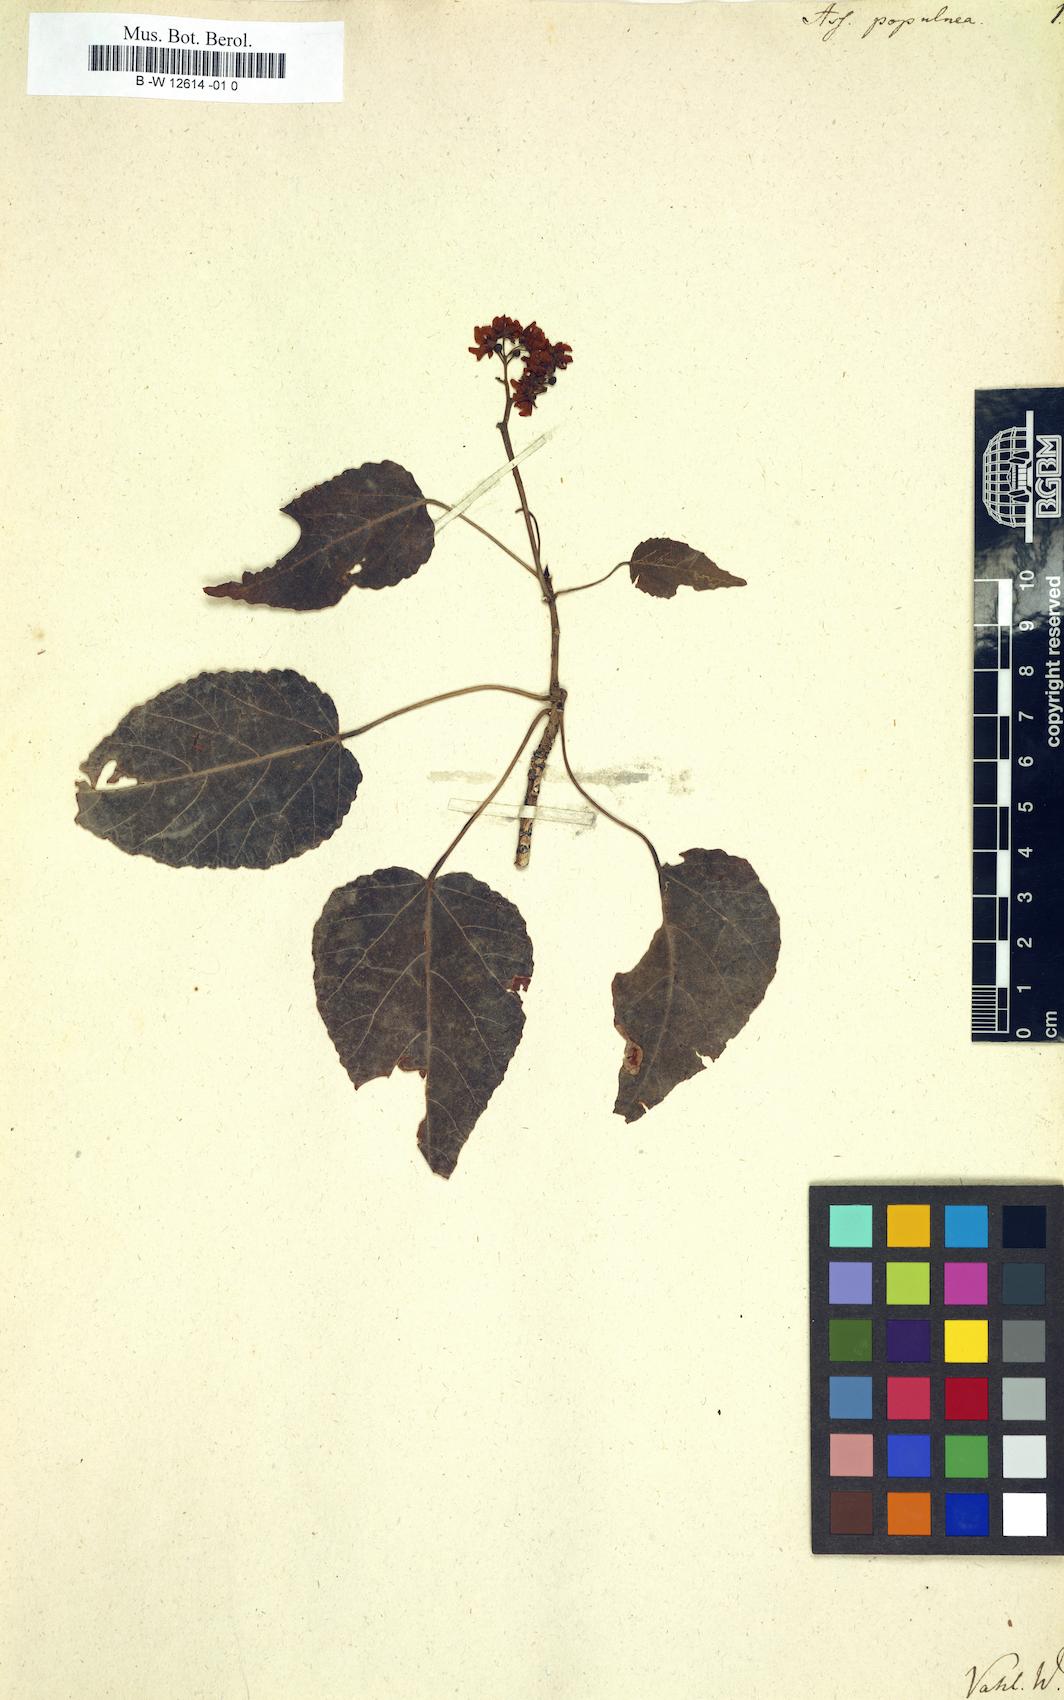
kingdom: Plantae
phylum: Tracheophyta
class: Magnoliopsida
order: Malvales
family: Malvaceae
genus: Ruizia
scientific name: Ruizia populnea
